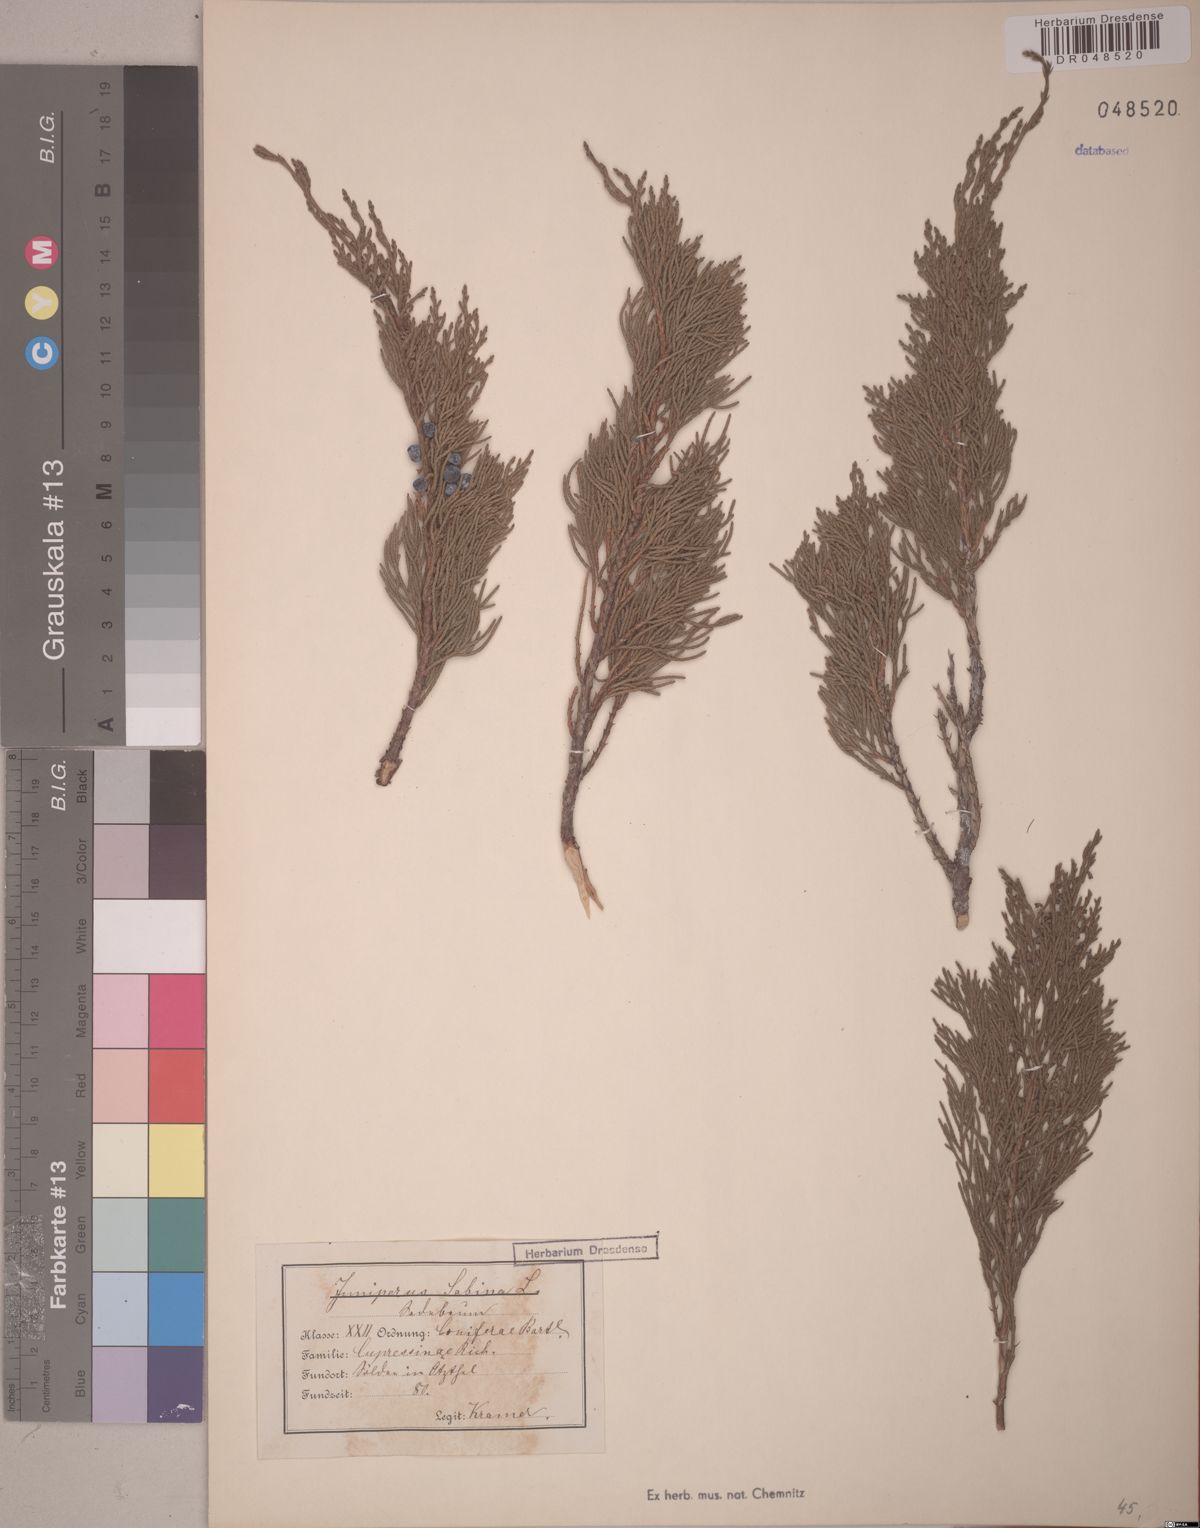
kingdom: Plantae
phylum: Tracheophyta
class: Pinopsida
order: Pinales
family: Cupressaceae
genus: Juniperus
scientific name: Juniperus sabina
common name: Savin
